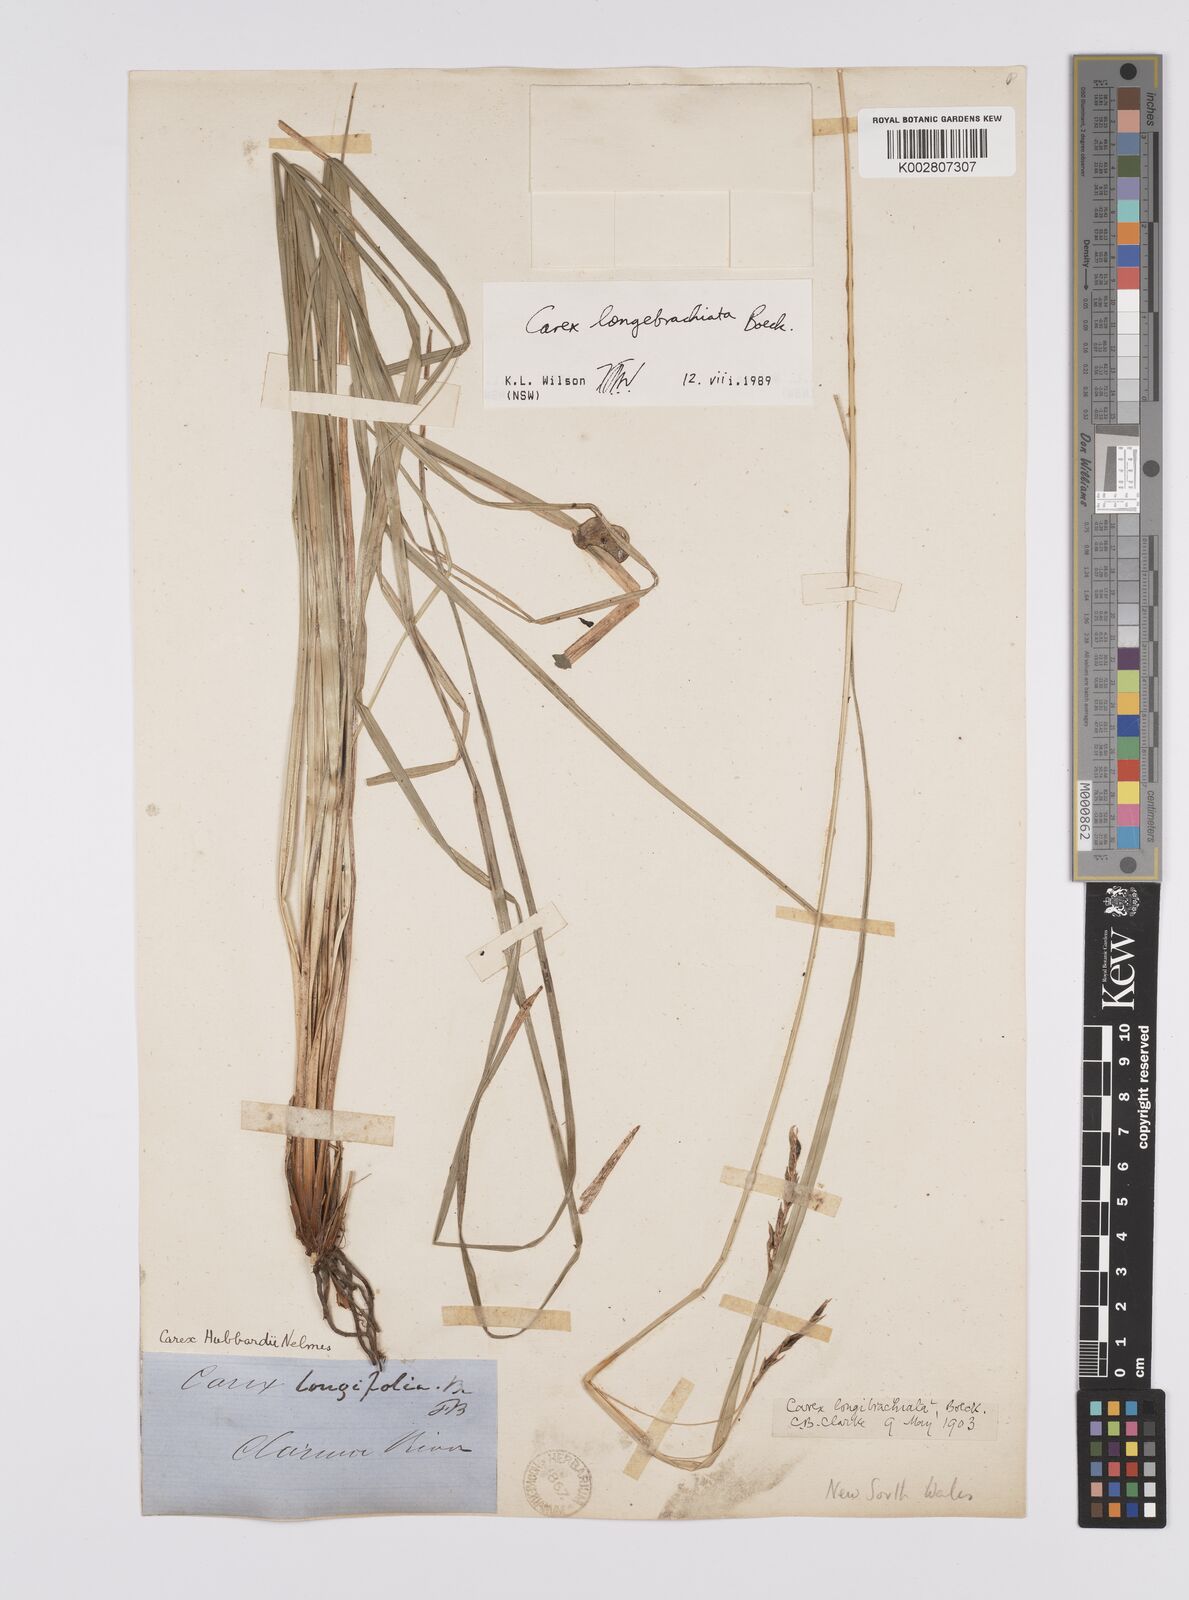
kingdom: Plantae
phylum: Tracheophyta
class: Liliopsida
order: Poales
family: Cyperaceae
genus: Carex
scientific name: Carex pseudocyperus
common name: Cyperus sedge
